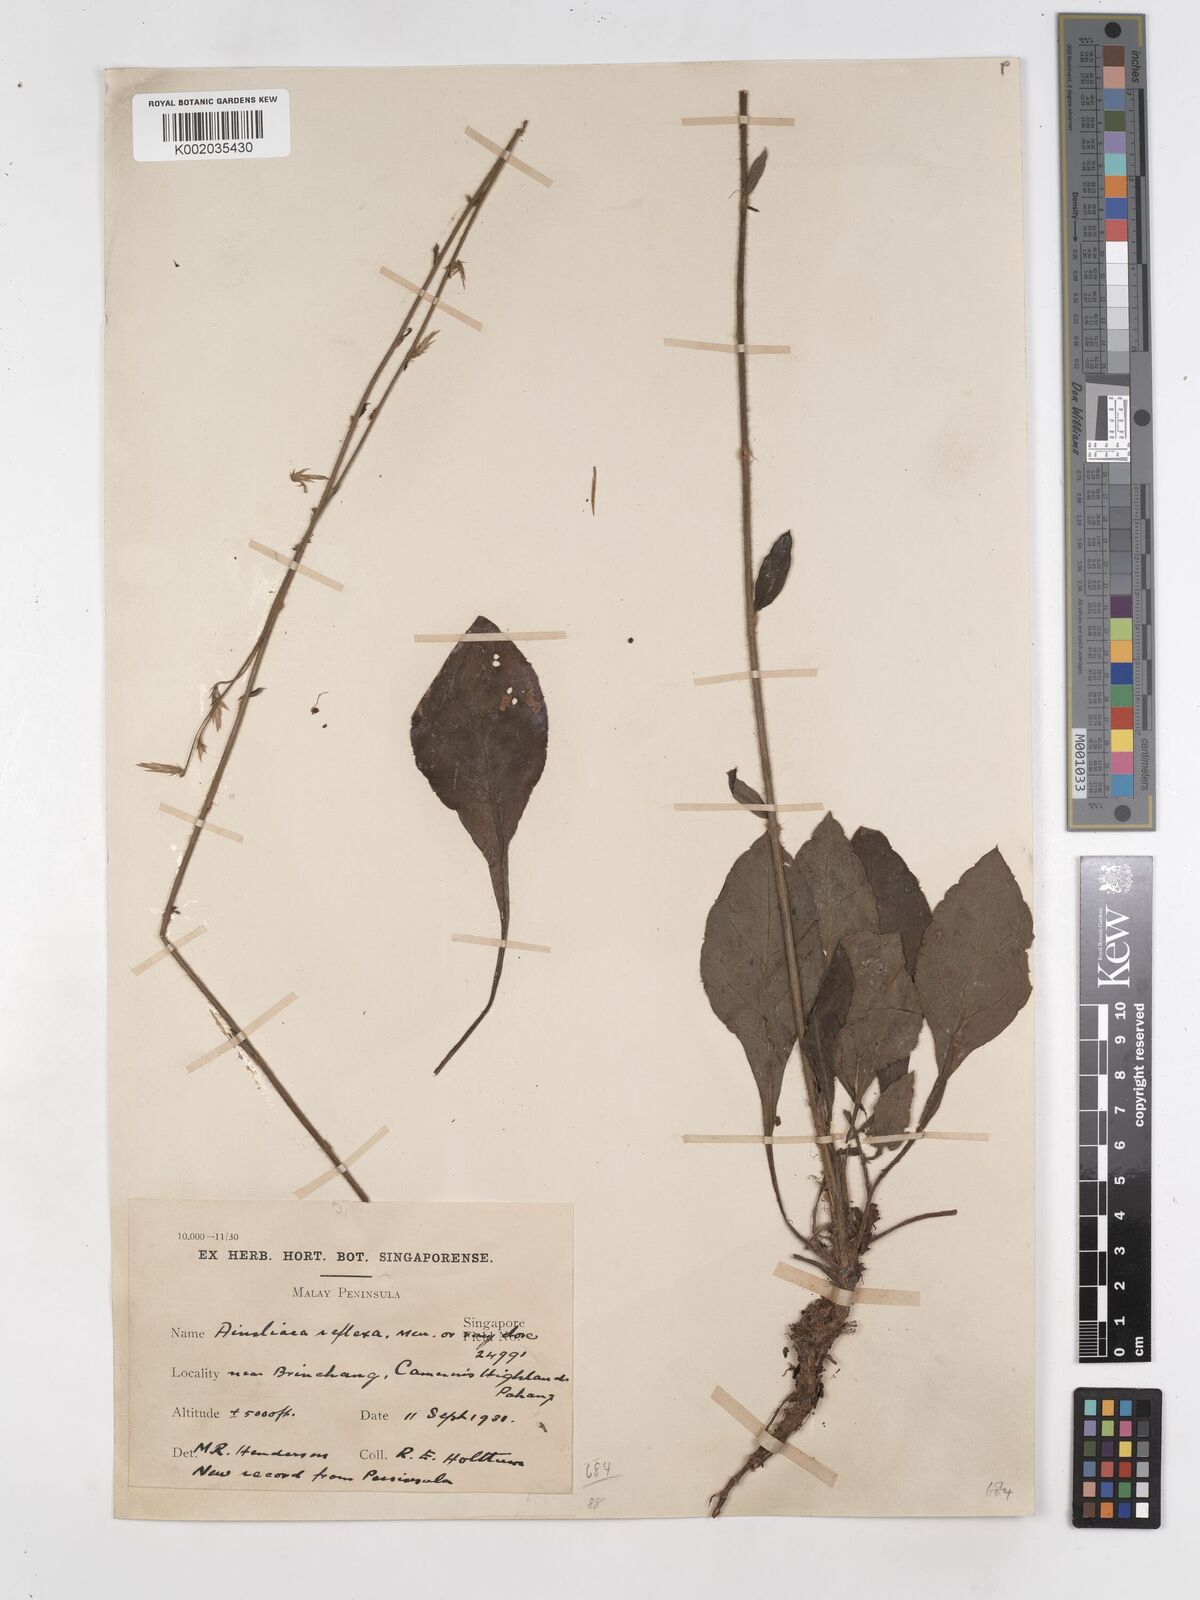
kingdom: Plantae
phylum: Tracheophyta
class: Magnoliopsida
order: Asterales
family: Asteraceae
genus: Ainsliaea
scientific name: Ainsliaea reflexa
